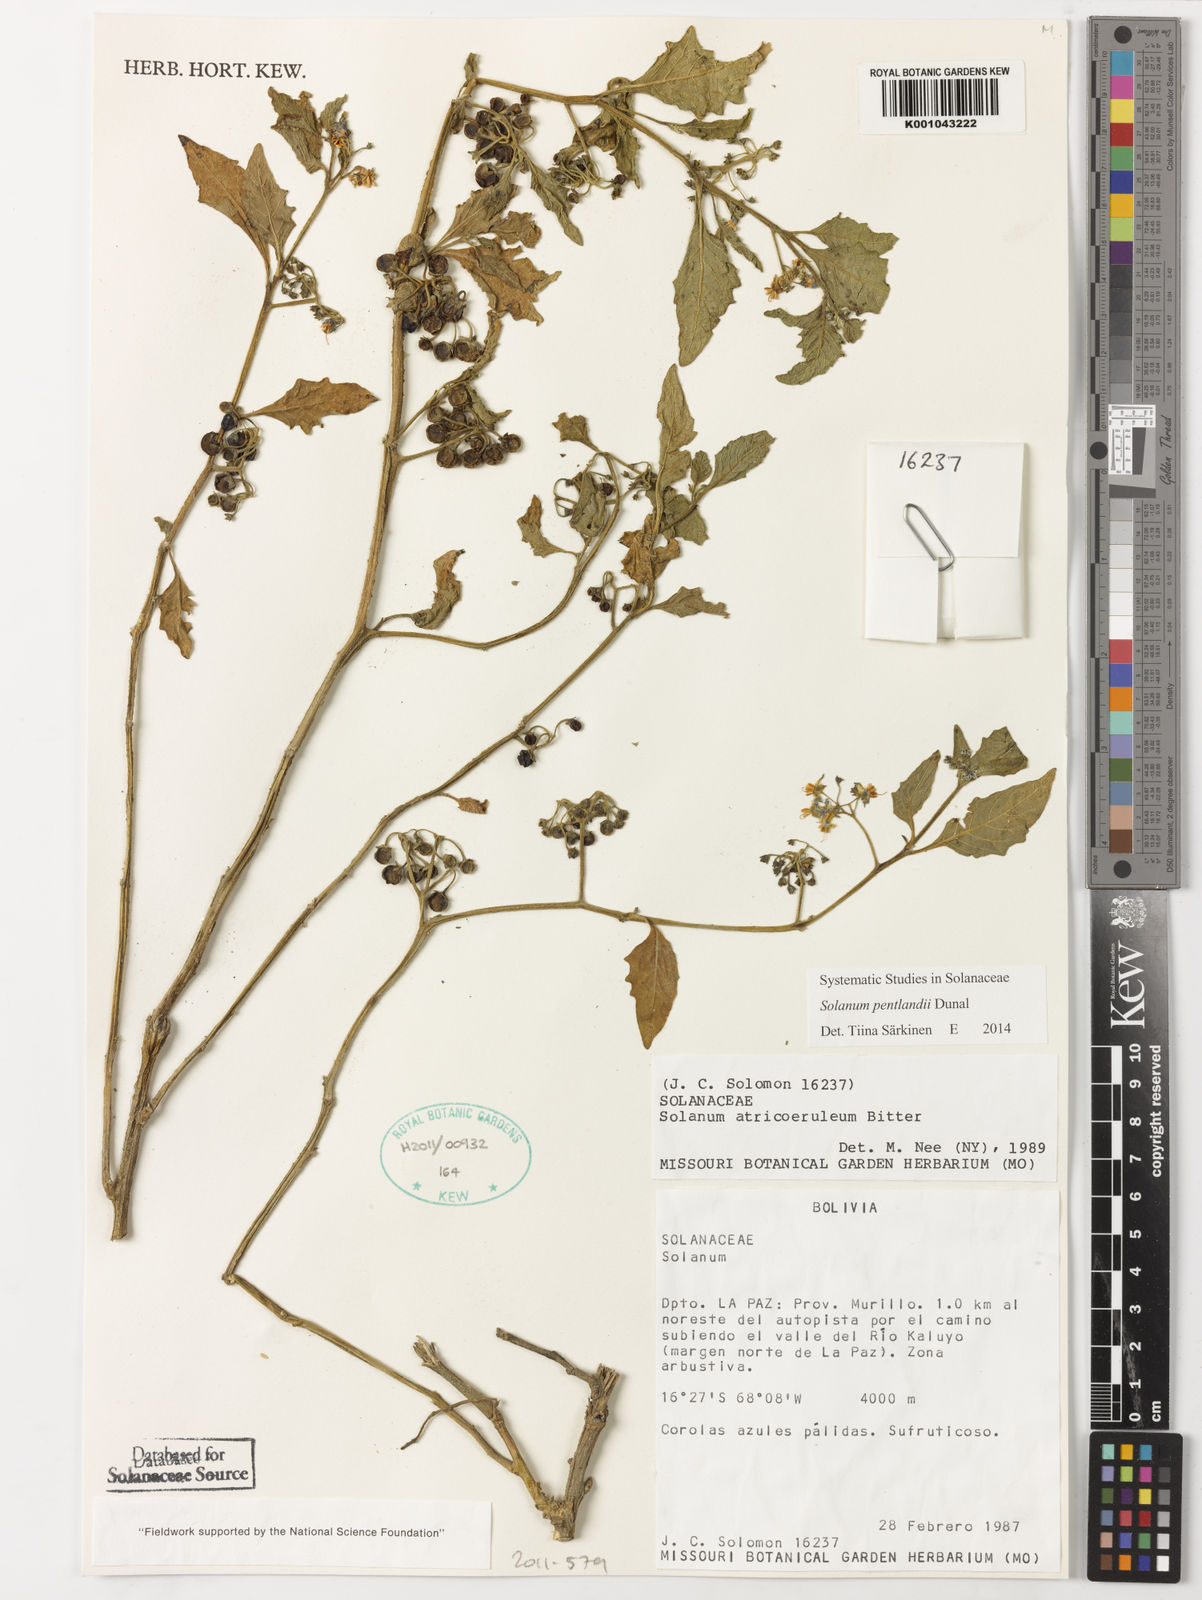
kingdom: Plantae
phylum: Tracheophyta
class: Magnoliopsida
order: Solanales
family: Solanaceae
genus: Solanum
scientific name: Solanum pentlandii
